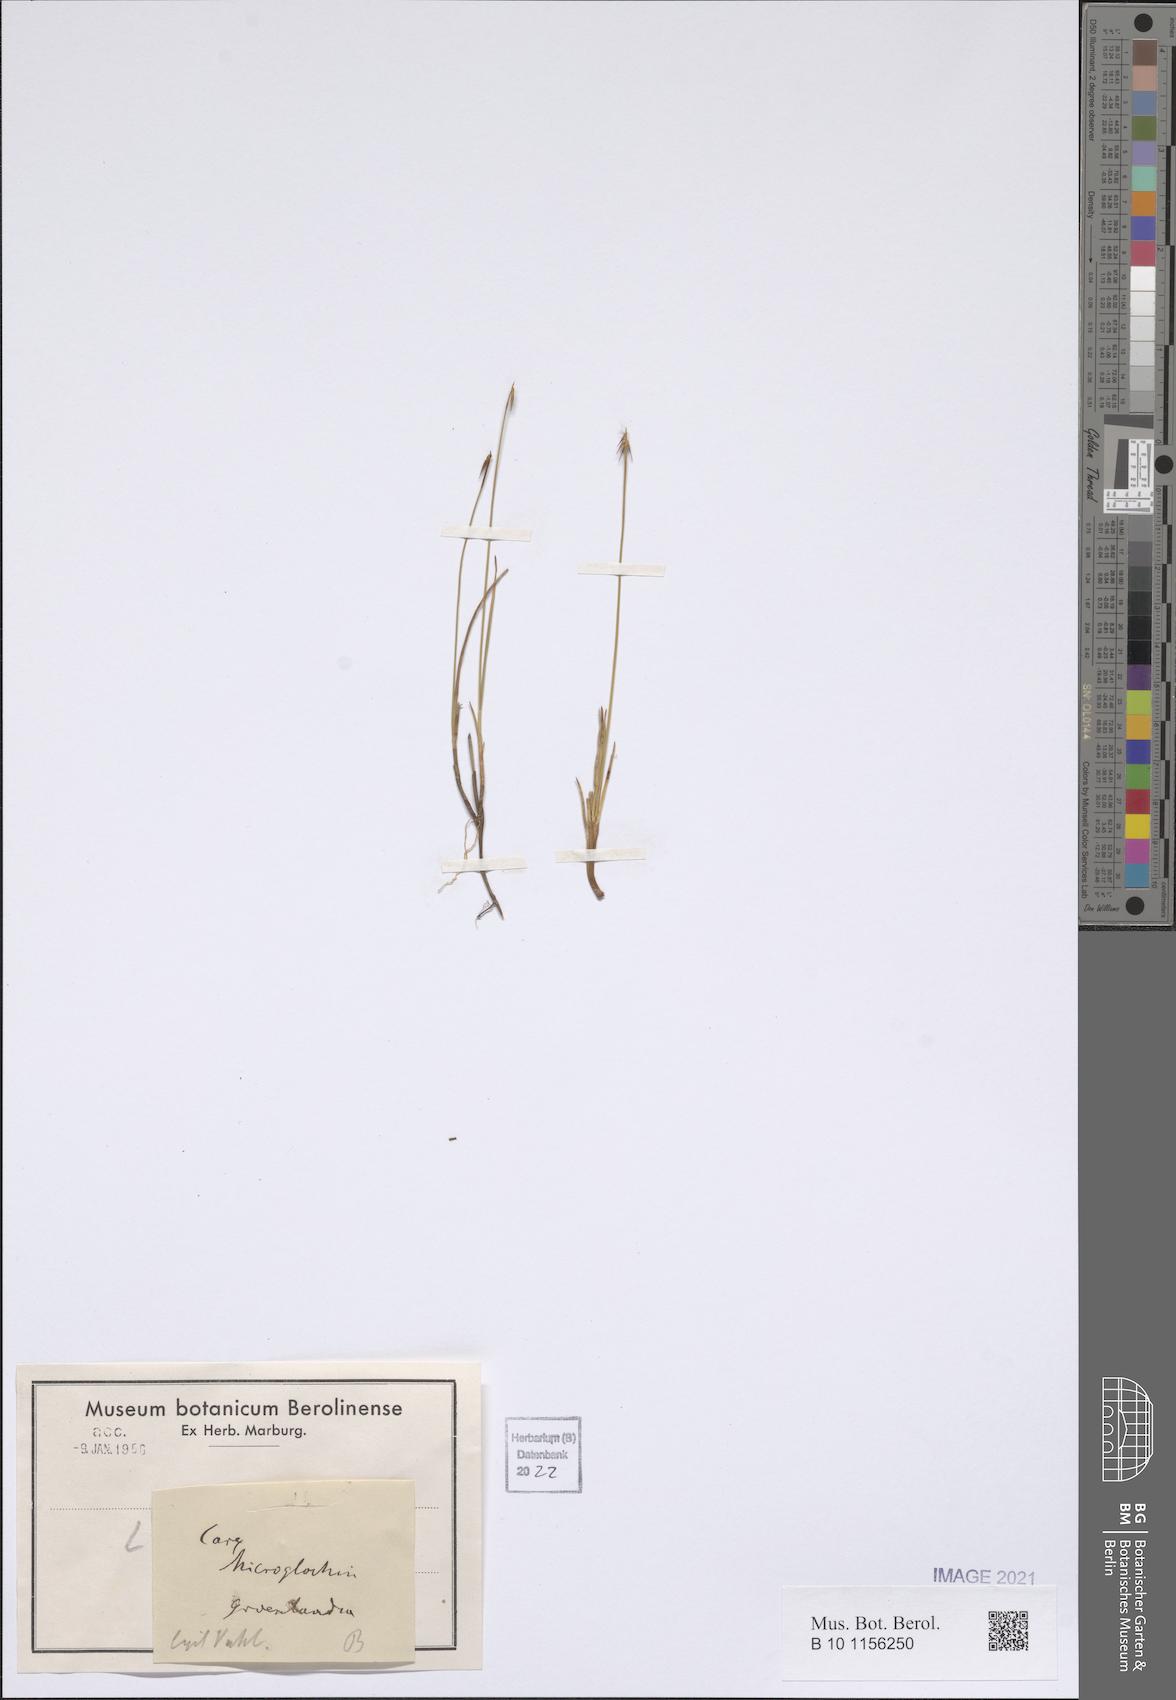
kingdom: Plantae
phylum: Tracheophyta
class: Liliopsida
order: Poales
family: Cyperaceae
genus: Carex
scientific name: Carex microglochin
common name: Bristle sedge
